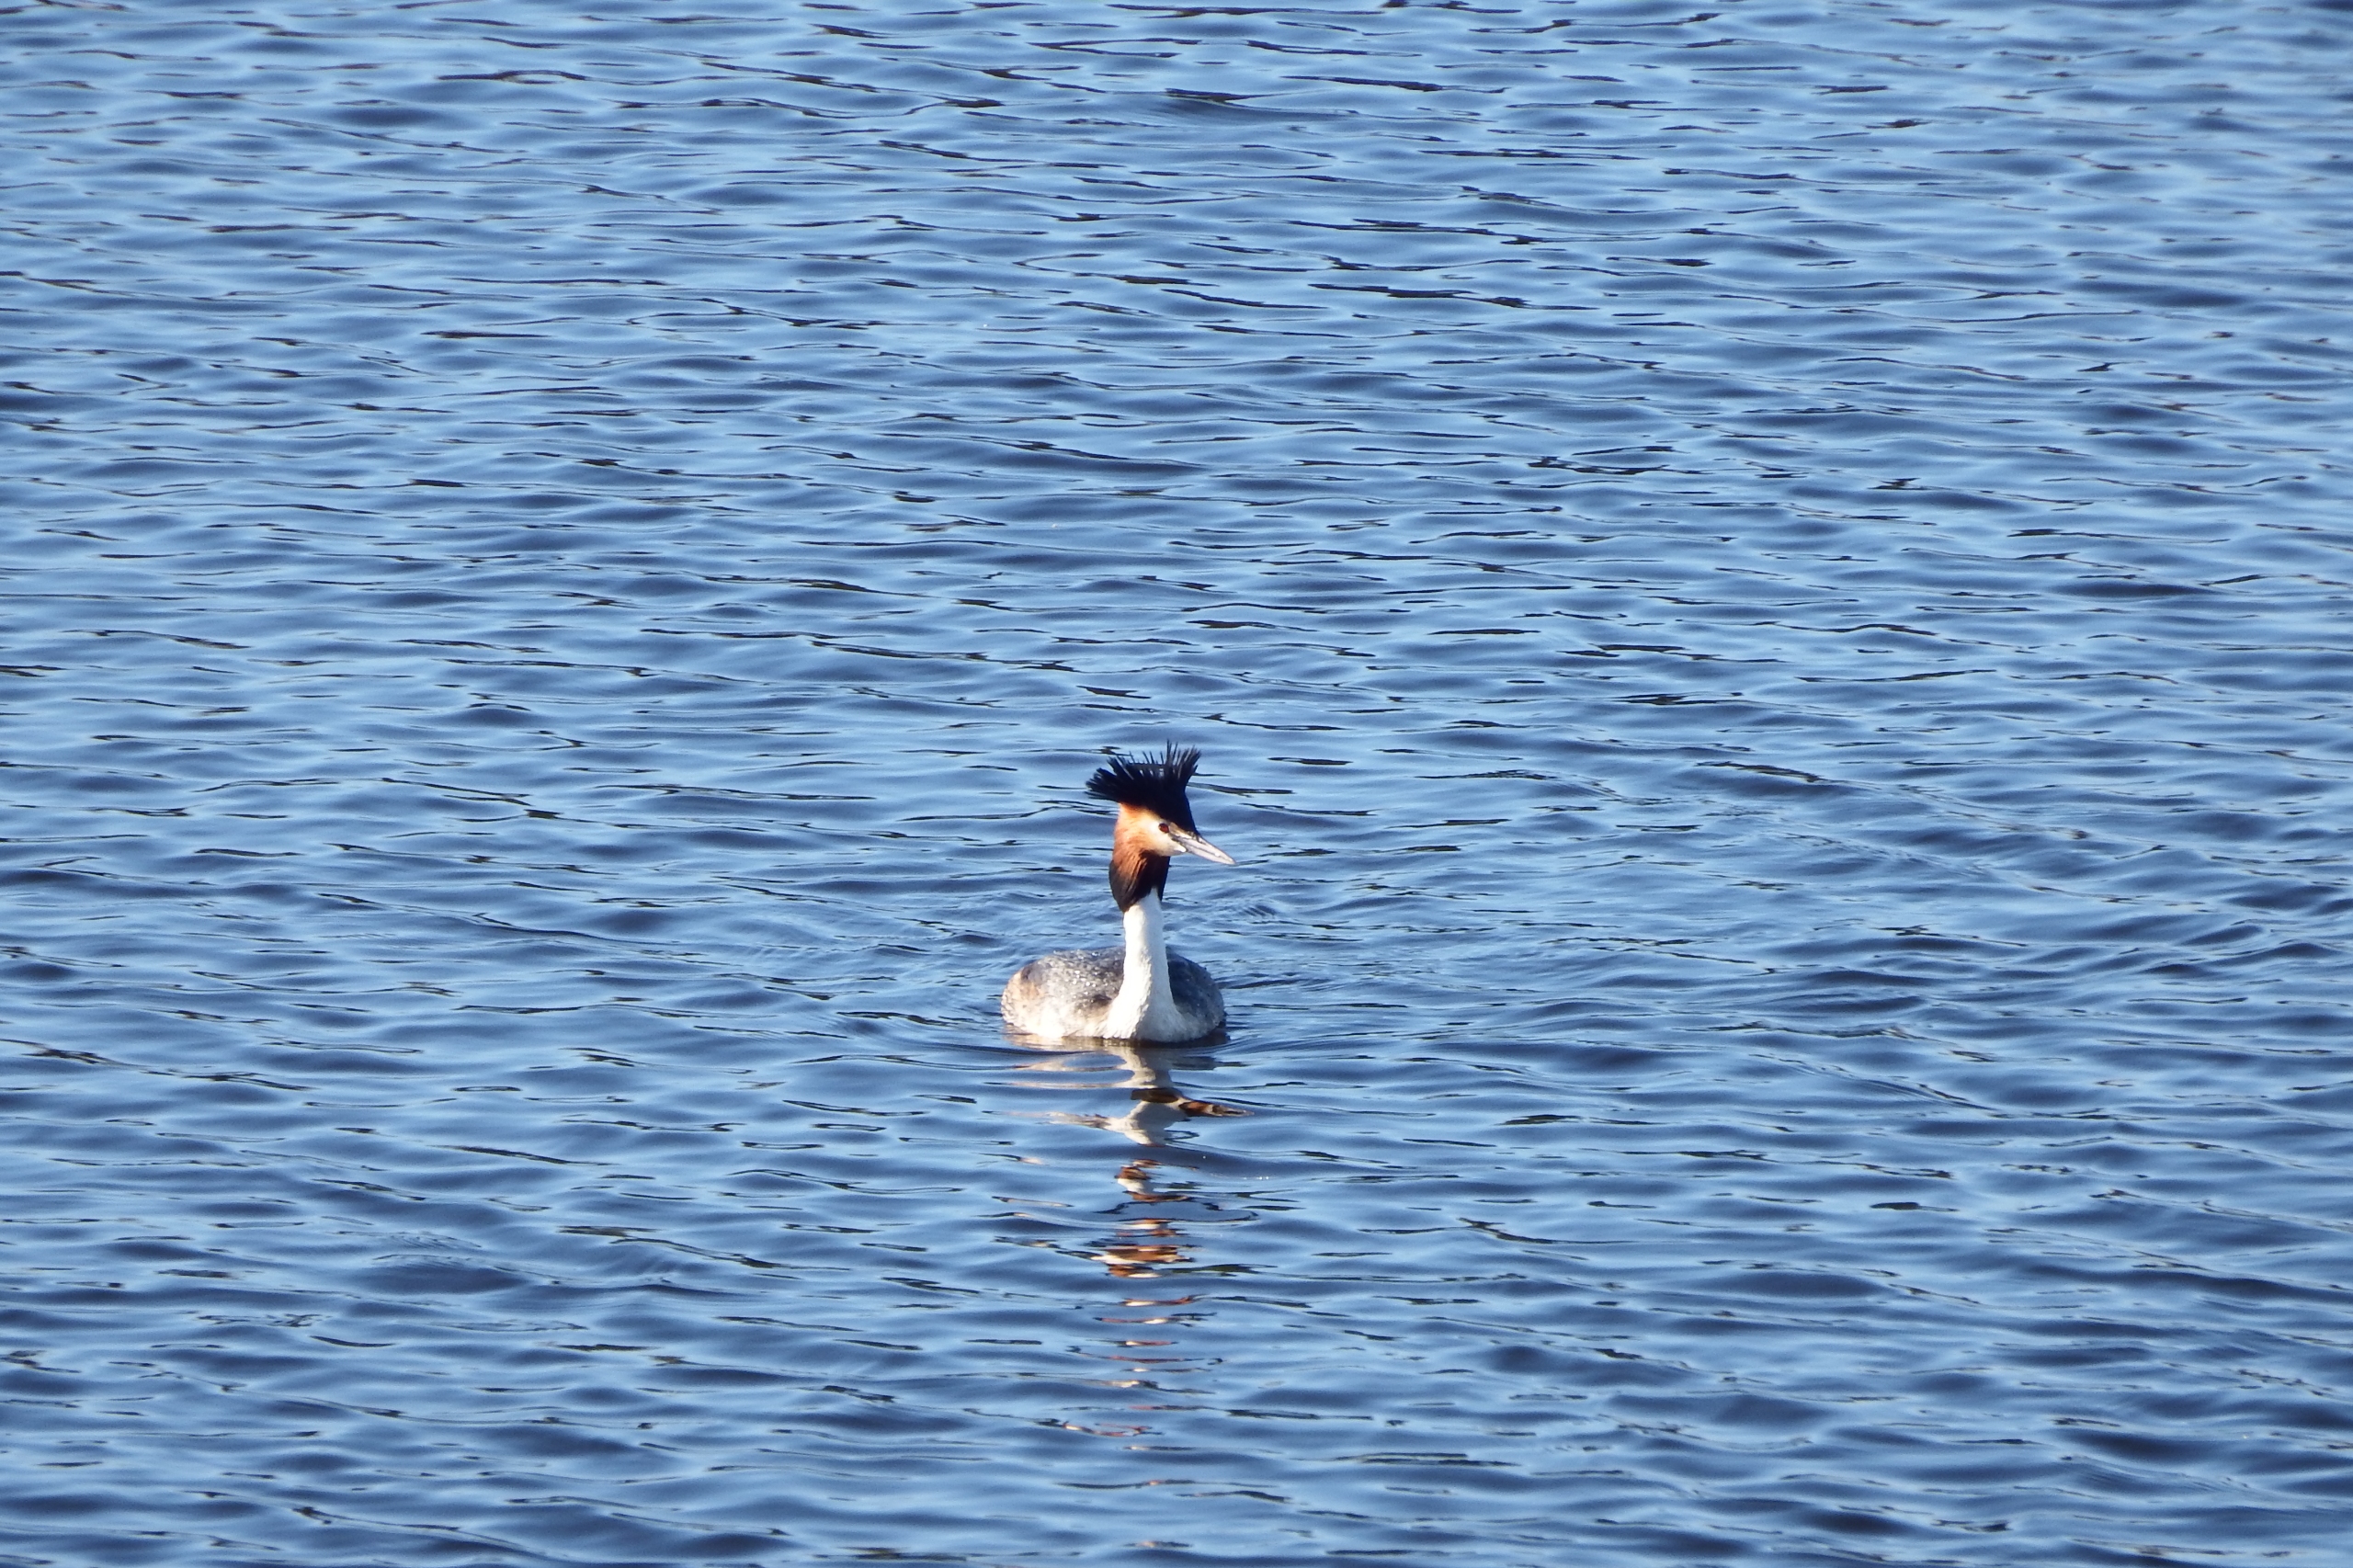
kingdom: Animalia
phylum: Chordata
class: Aves
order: Podicipediformes
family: Podicipedidae
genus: Podiceps
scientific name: Podiceps cristatus
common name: Toppet lappedykker
